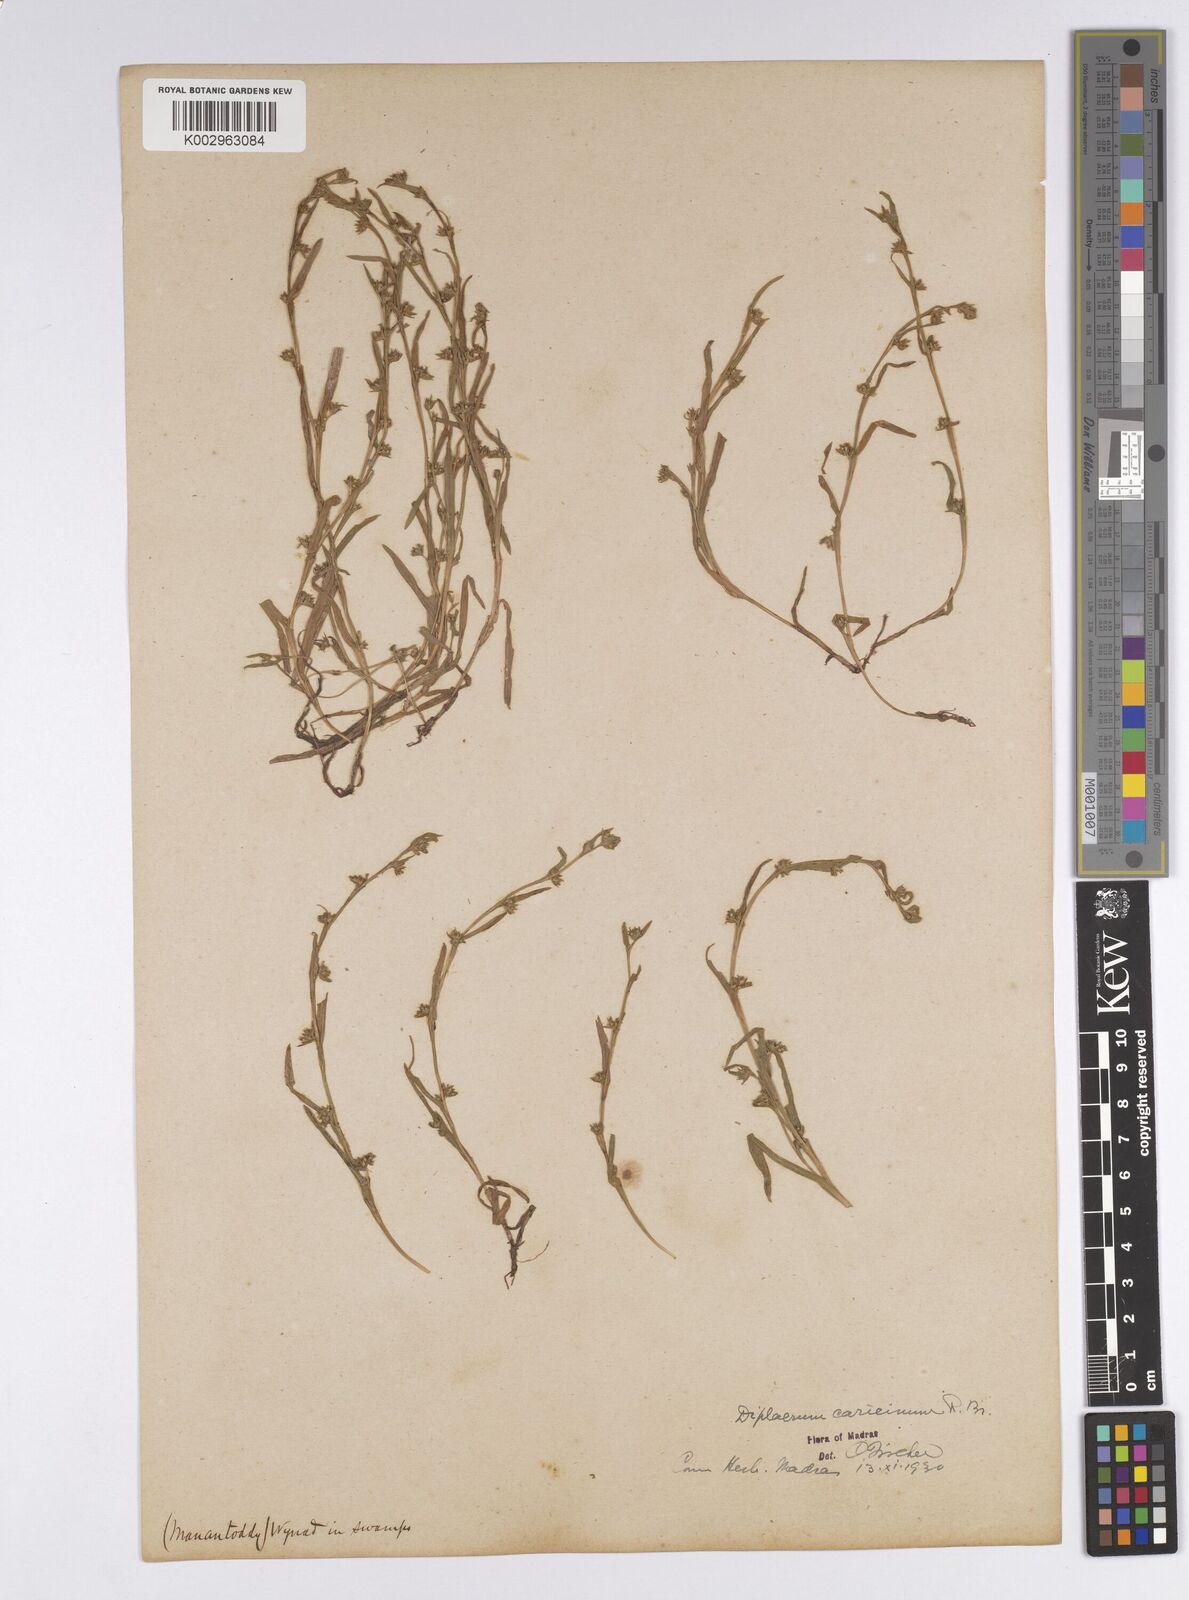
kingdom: Plantae
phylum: Tracheophyta
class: Liliopsida
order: Poales
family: Cyperaceae
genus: Diplacrum
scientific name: Diplacrum caricinum
